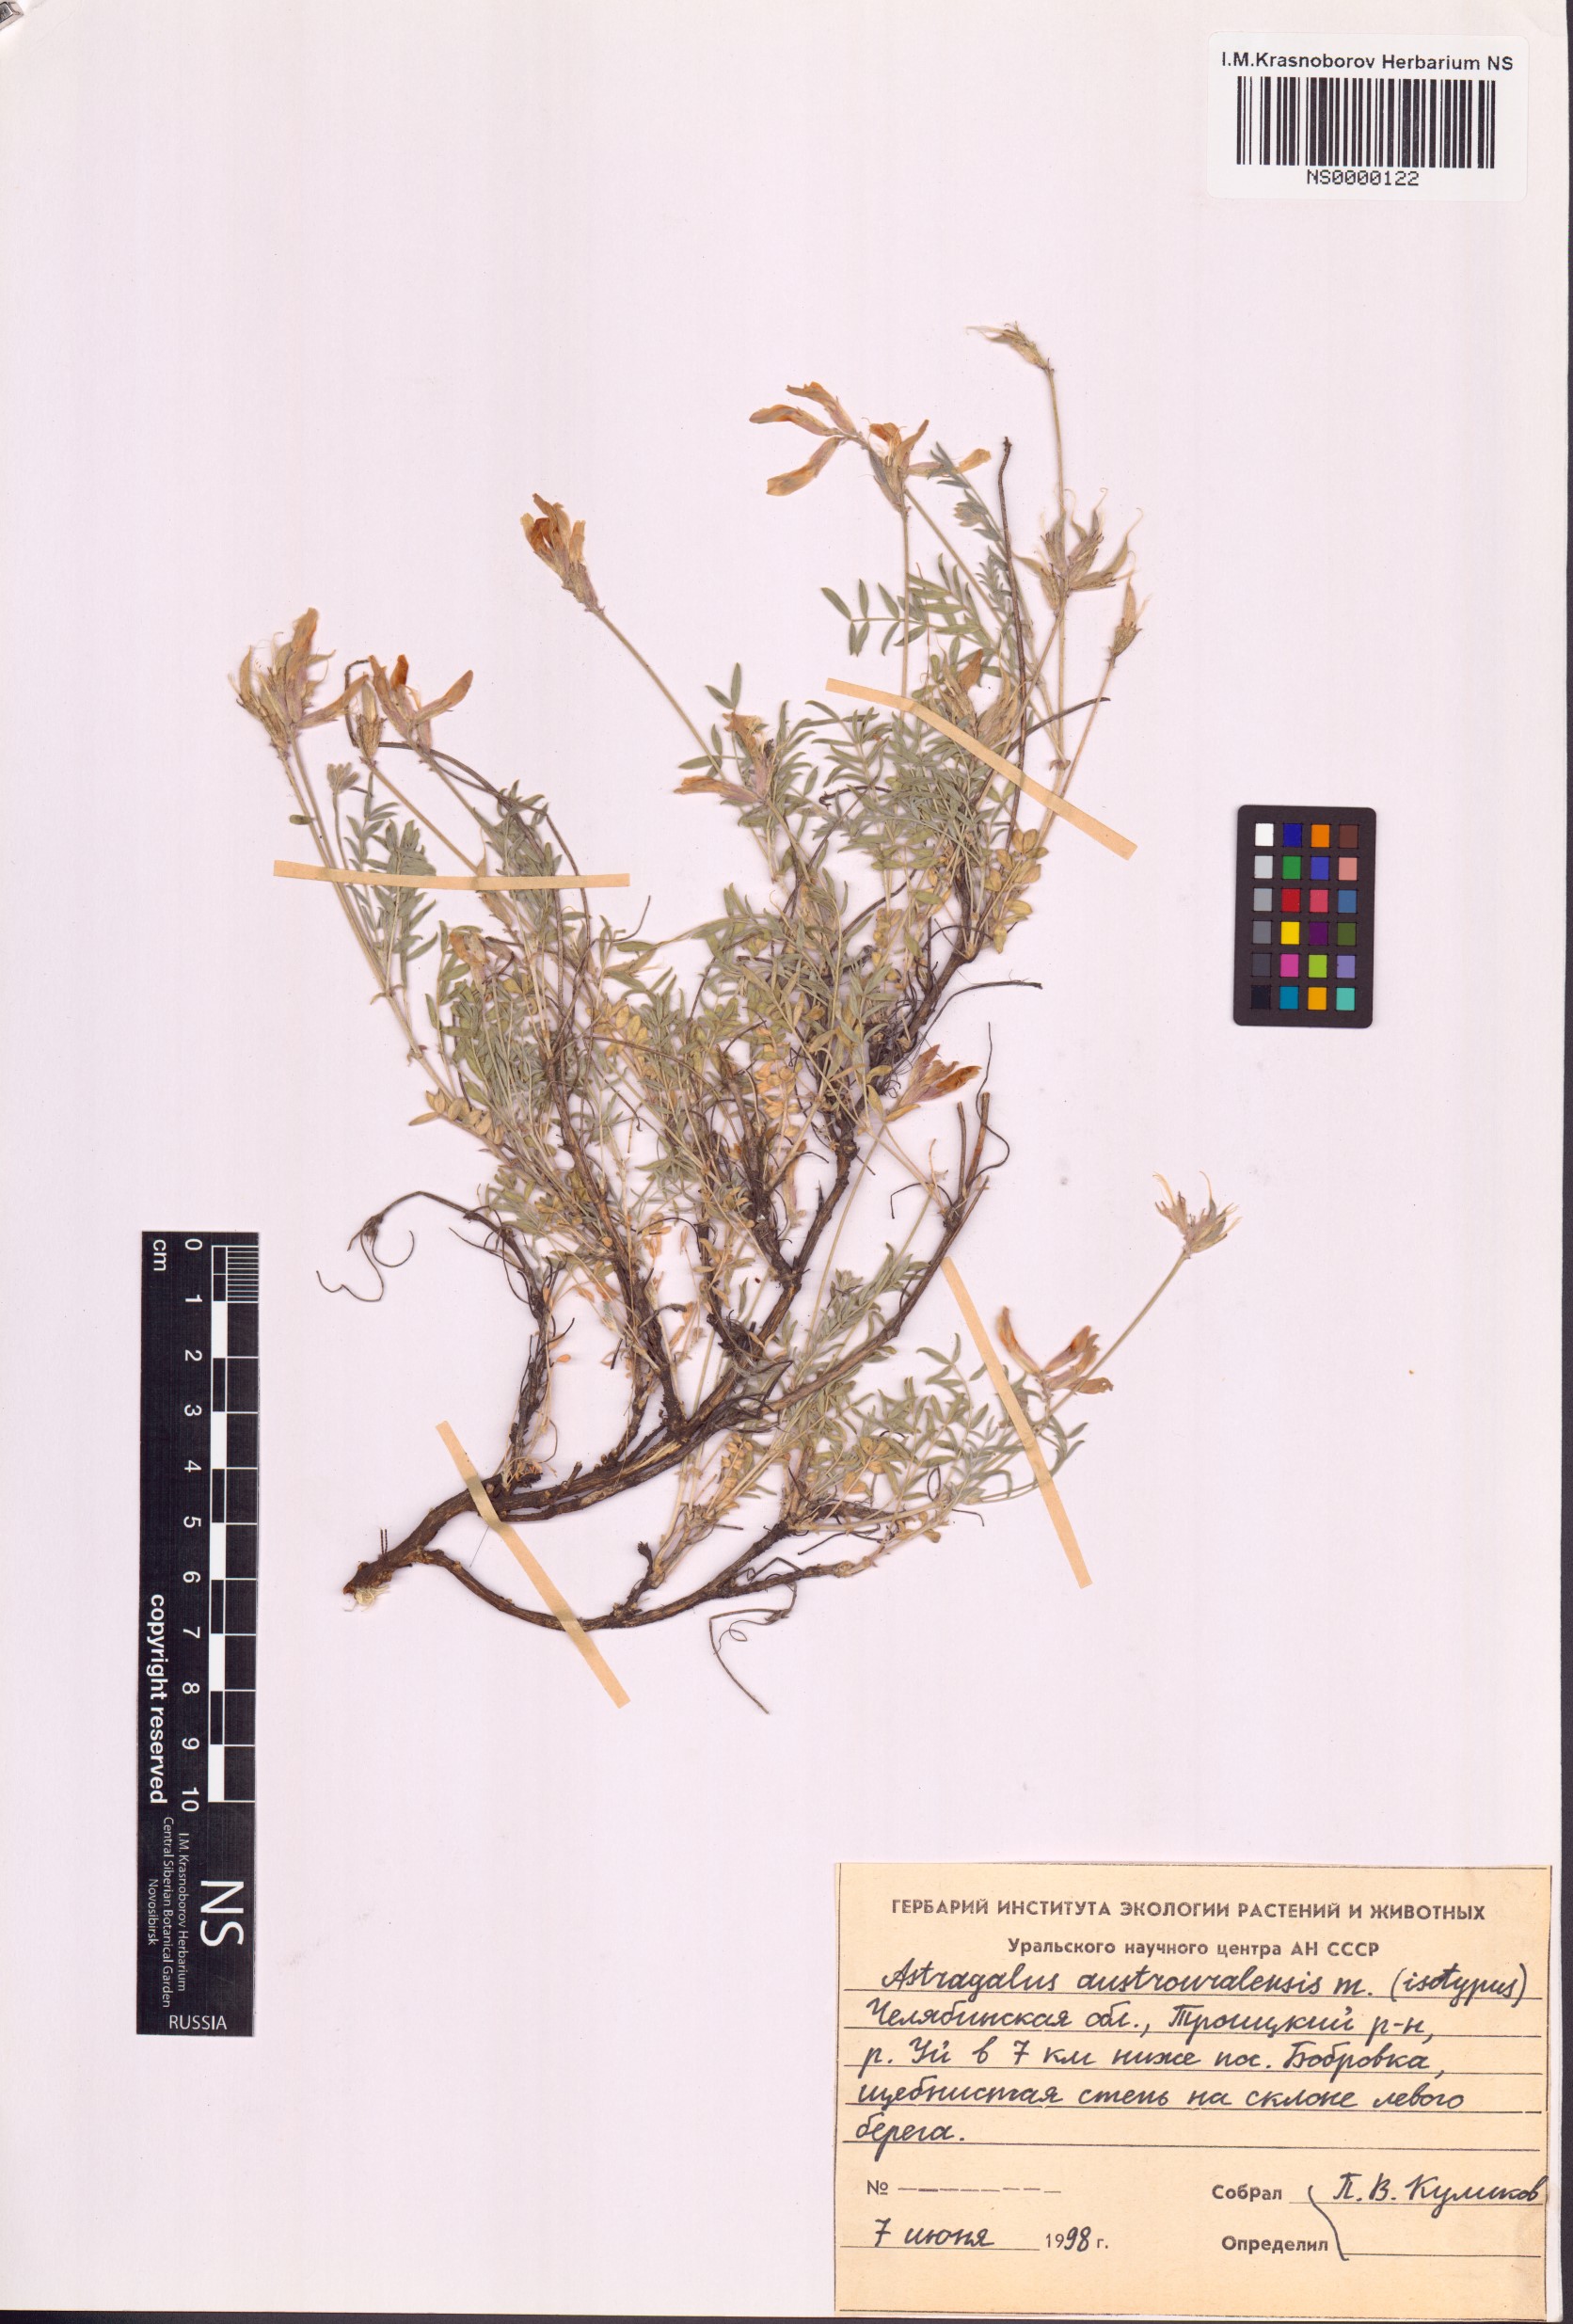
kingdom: Plantae
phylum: Tracheophyta
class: Magnoliopsida
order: Fabales
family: Fabaceae
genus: Astragalus
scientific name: Astragalus austrouralensis
